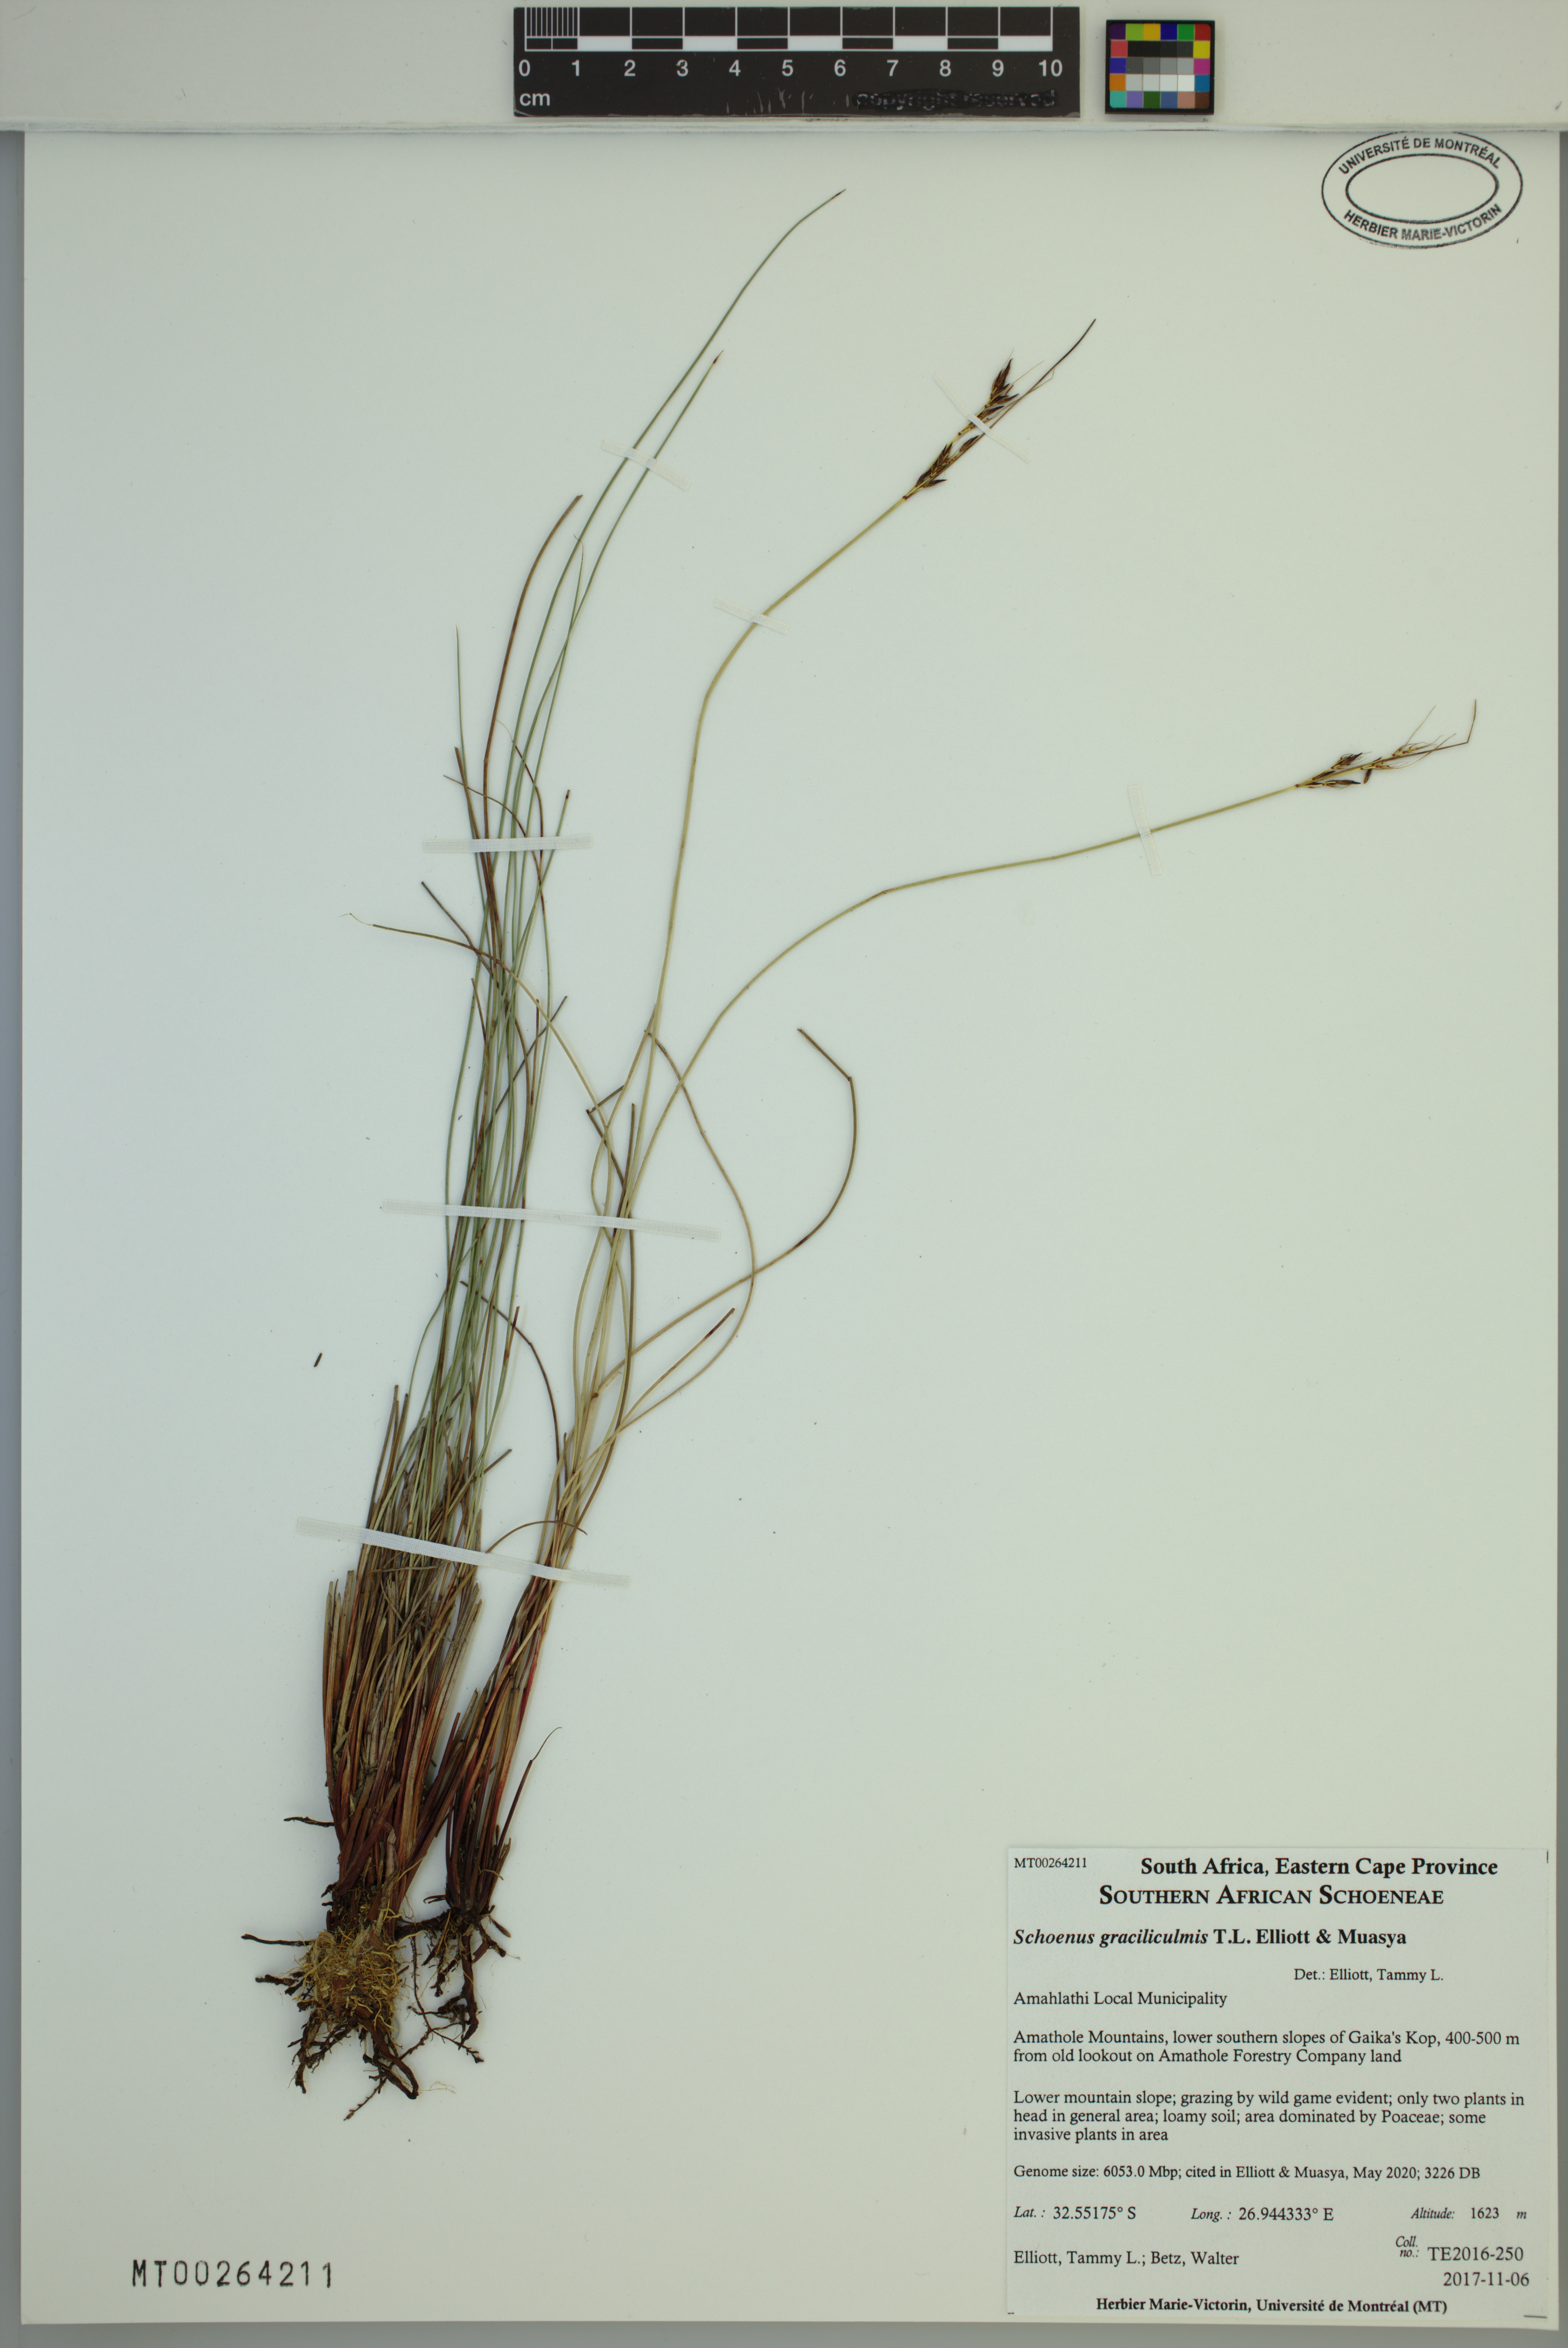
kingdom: Plantae
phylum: Tracheophyta
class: Liliopsida
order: Poales
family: Cyperaceae
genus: Schoenus
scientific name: Schoenus graciliculmis
